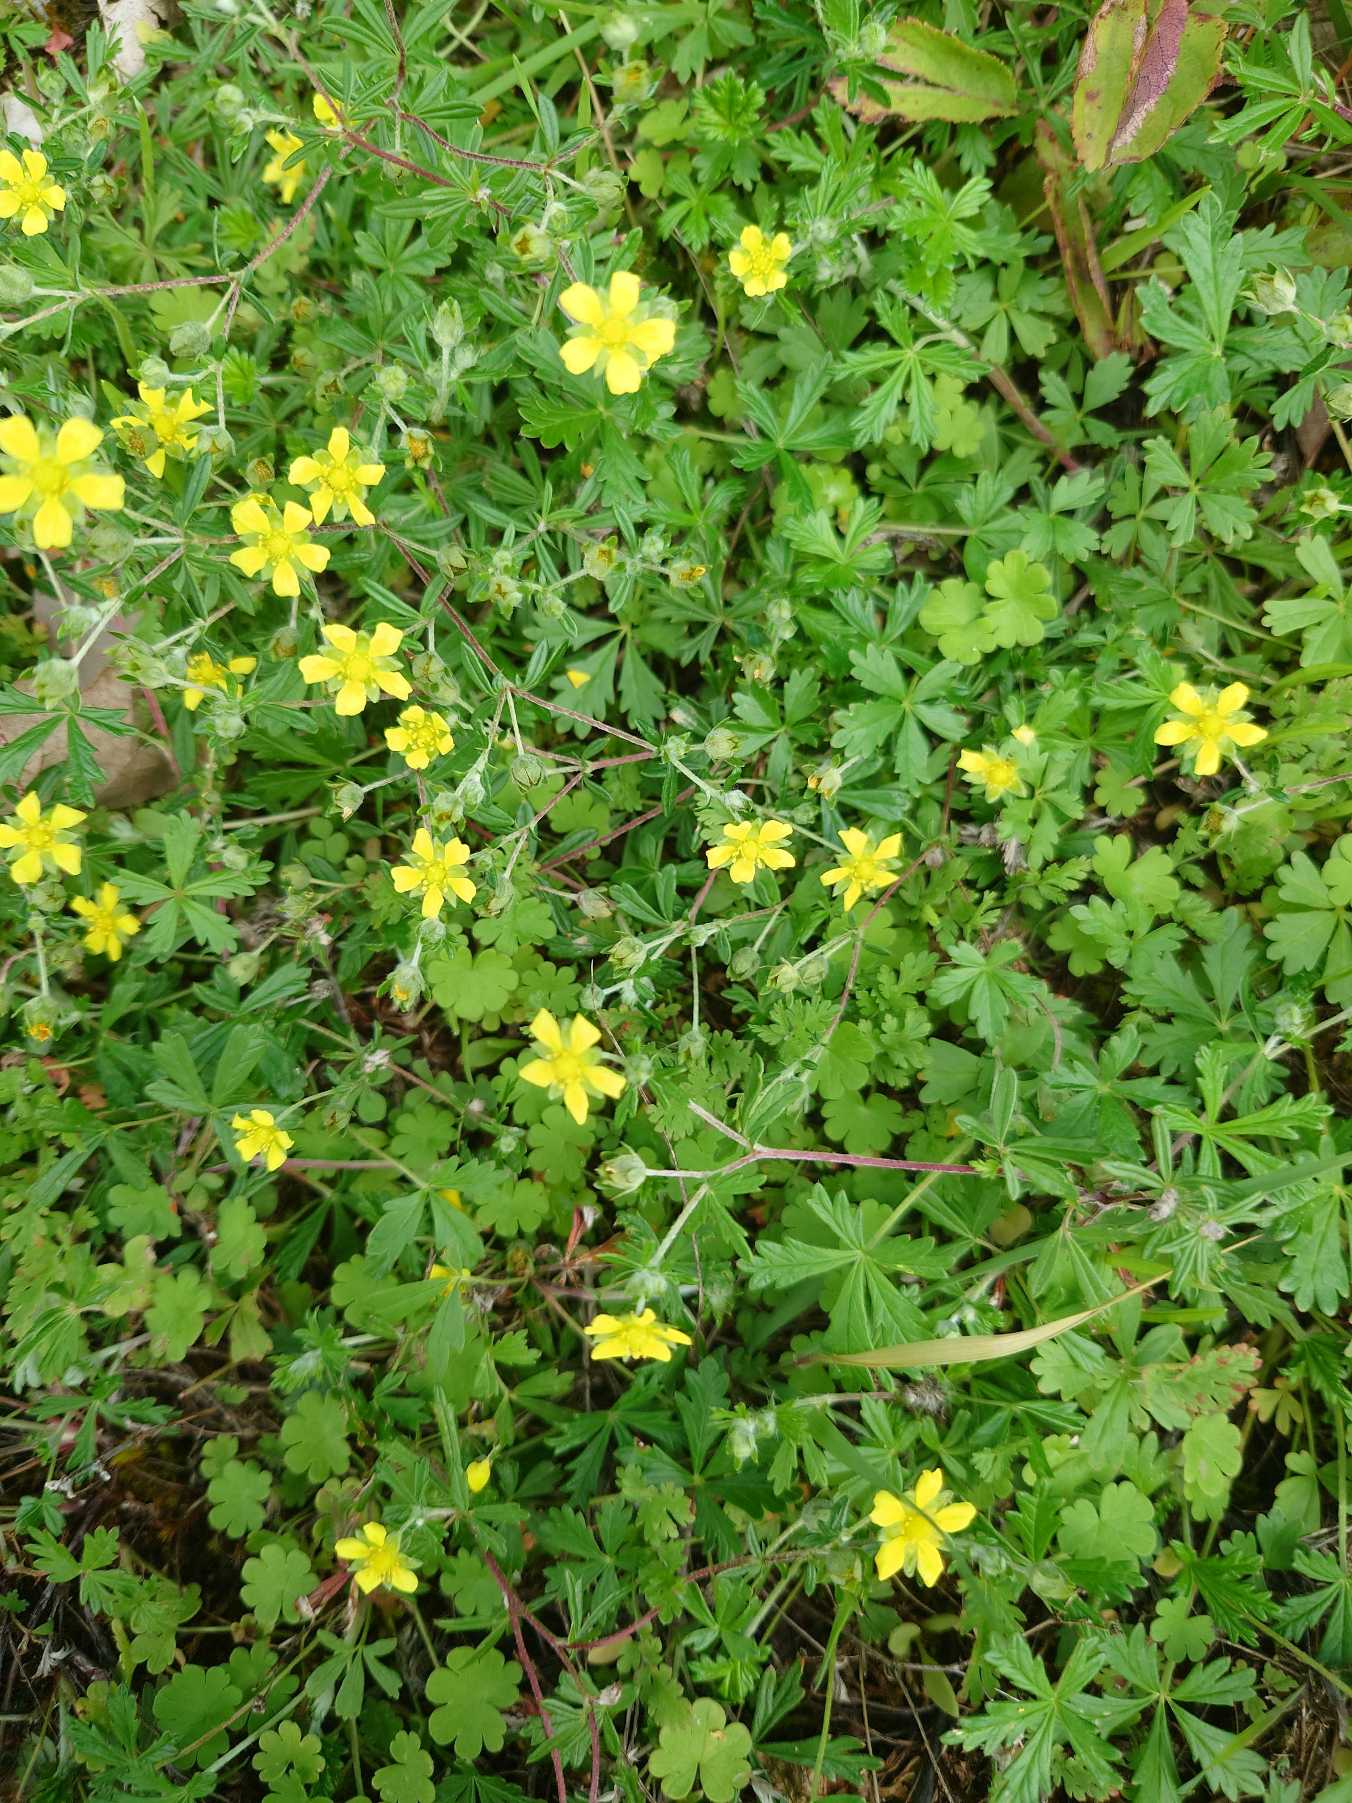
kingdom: Plantae
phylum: Tracheophyta
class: Magnoliopsida
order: Rosales
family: Rosaceae
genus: Potentilla
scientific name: Potentilla argentea
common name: Sølv-potentil
